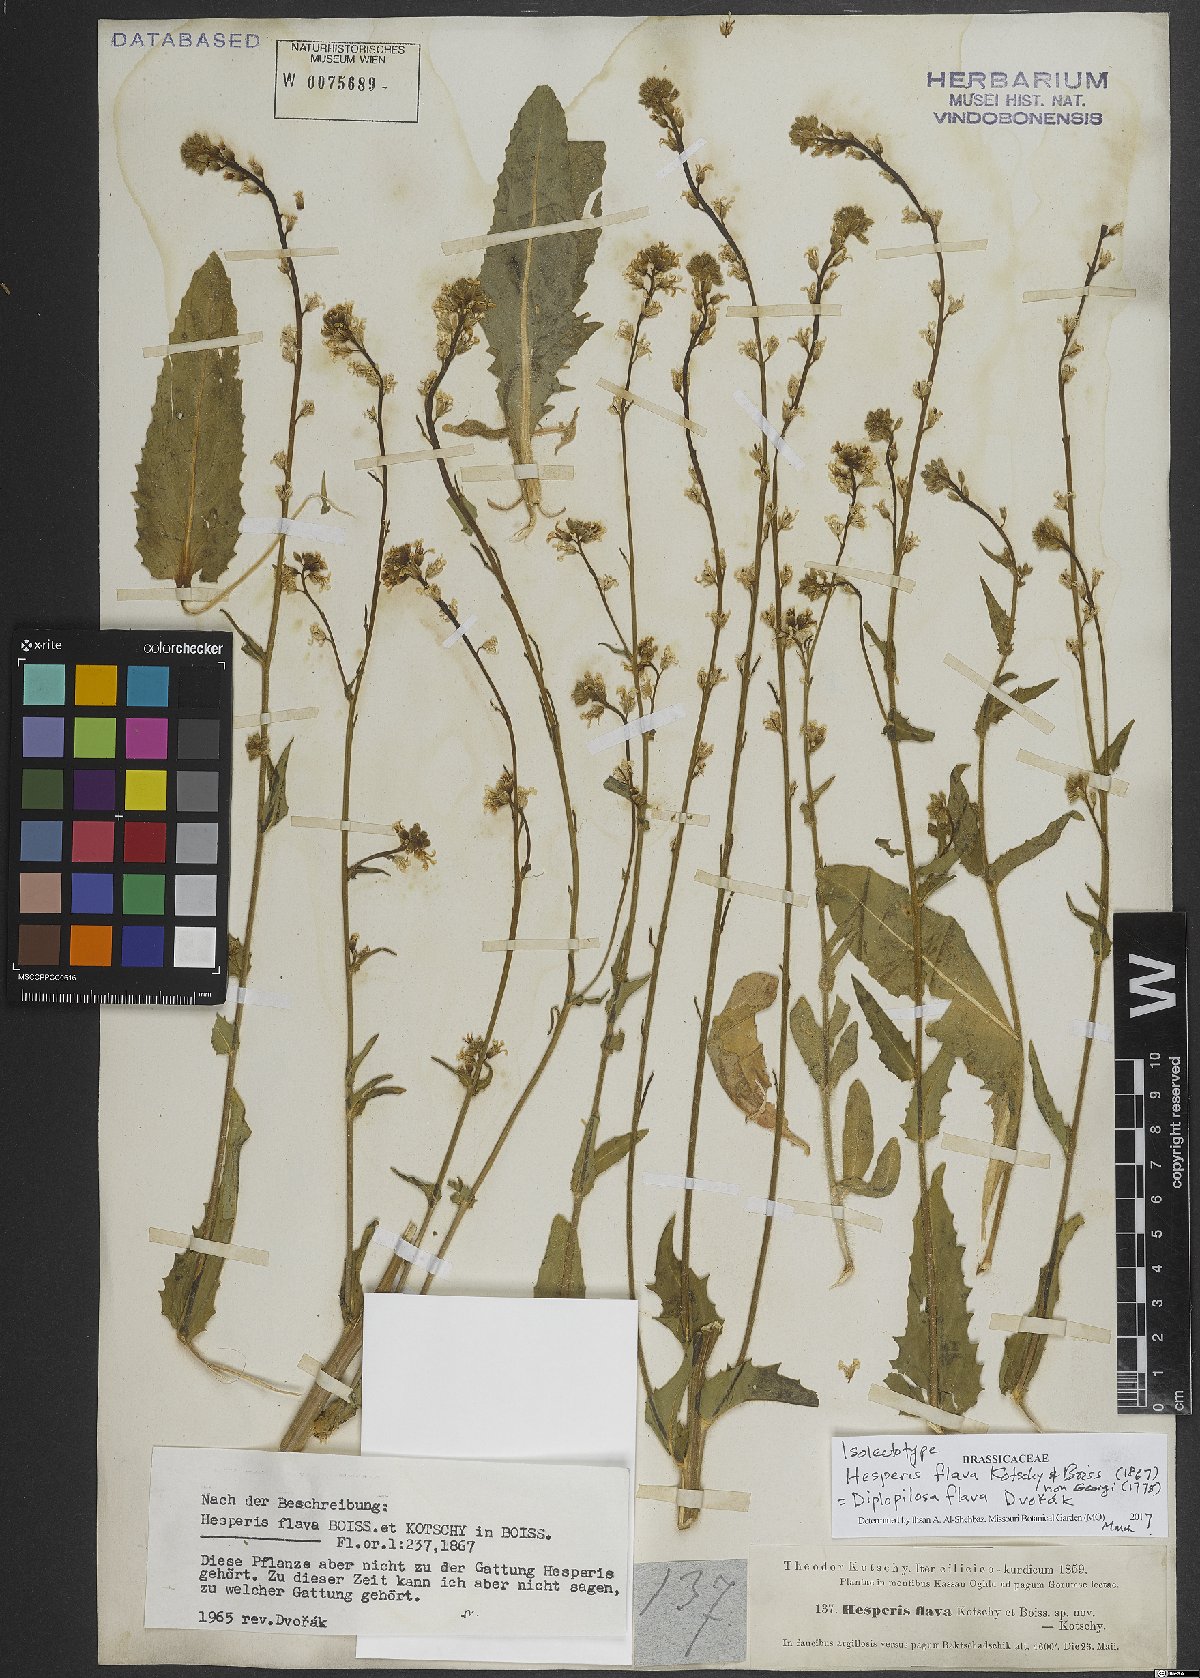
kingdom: Plantae
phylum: Tracheophyta
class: Magnoliopsida
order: Brassicales
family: Brassicaceae
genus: Hesperis
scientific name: Hesperis dvorakii
